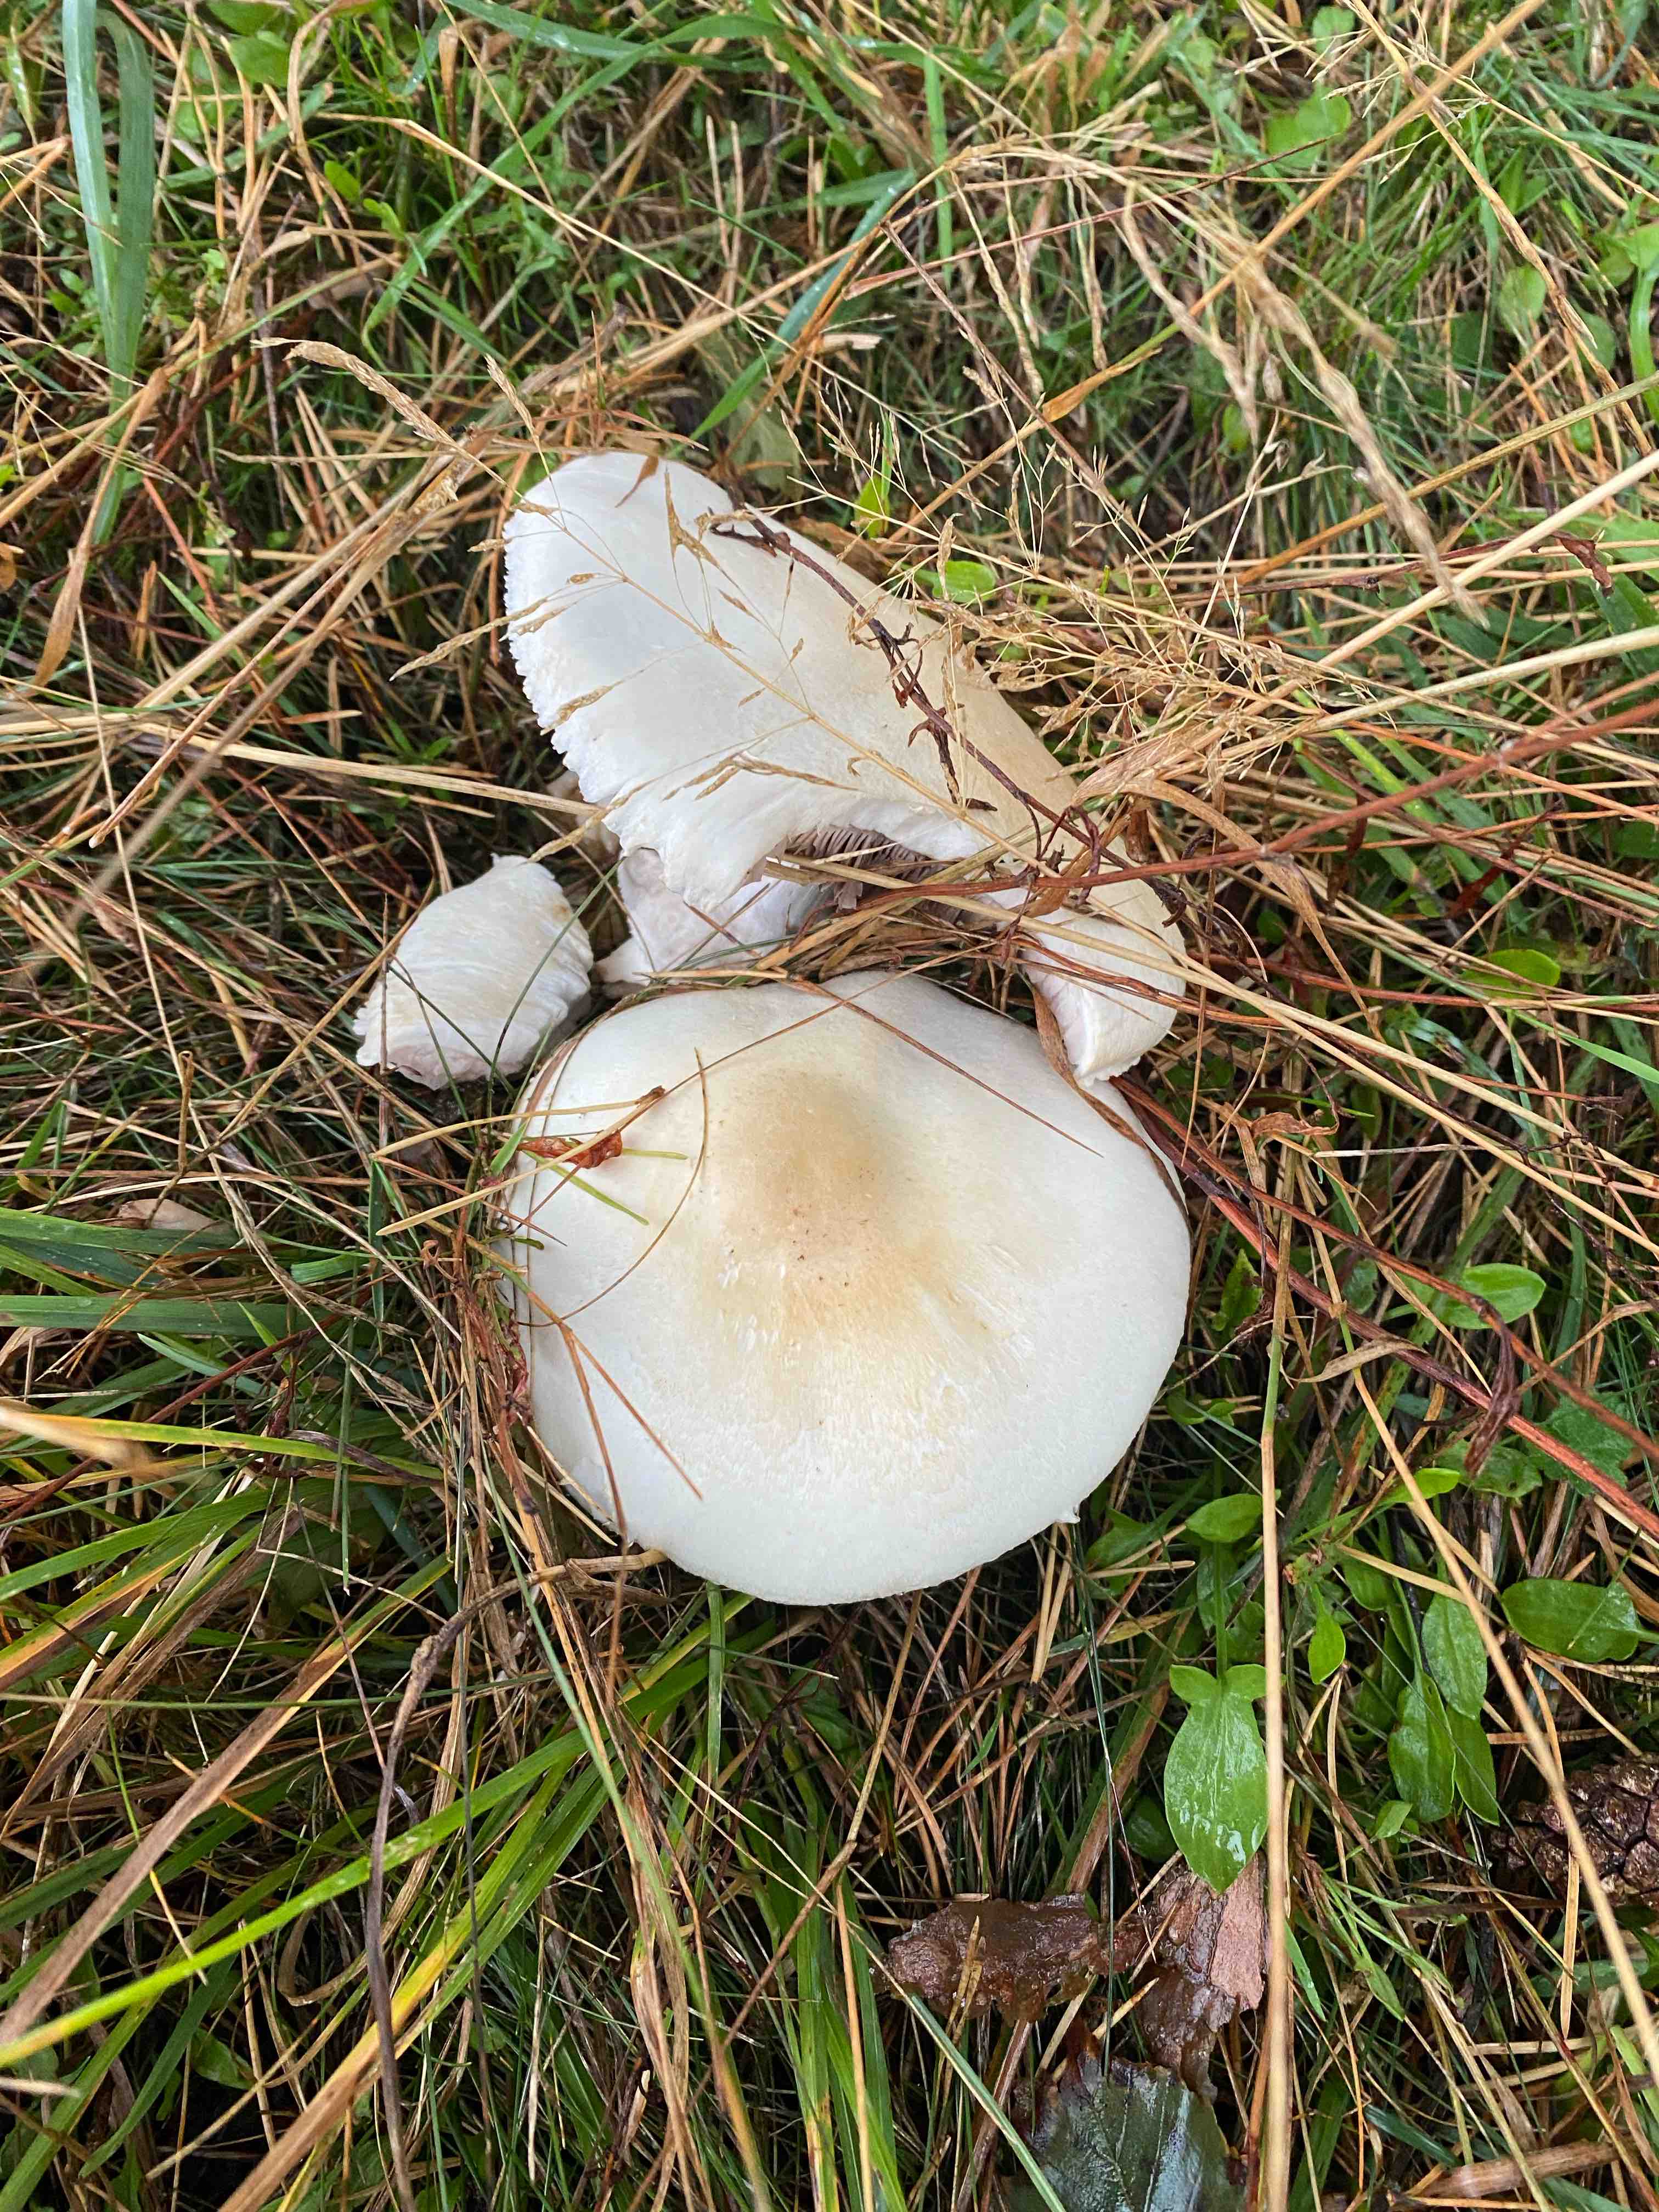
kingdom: Fungi
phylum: Basidiomycota
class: Agaricomycetes
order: Agaricales
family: Entolomataceae
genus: Clitopilus
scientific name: Clitopilus prunulus
